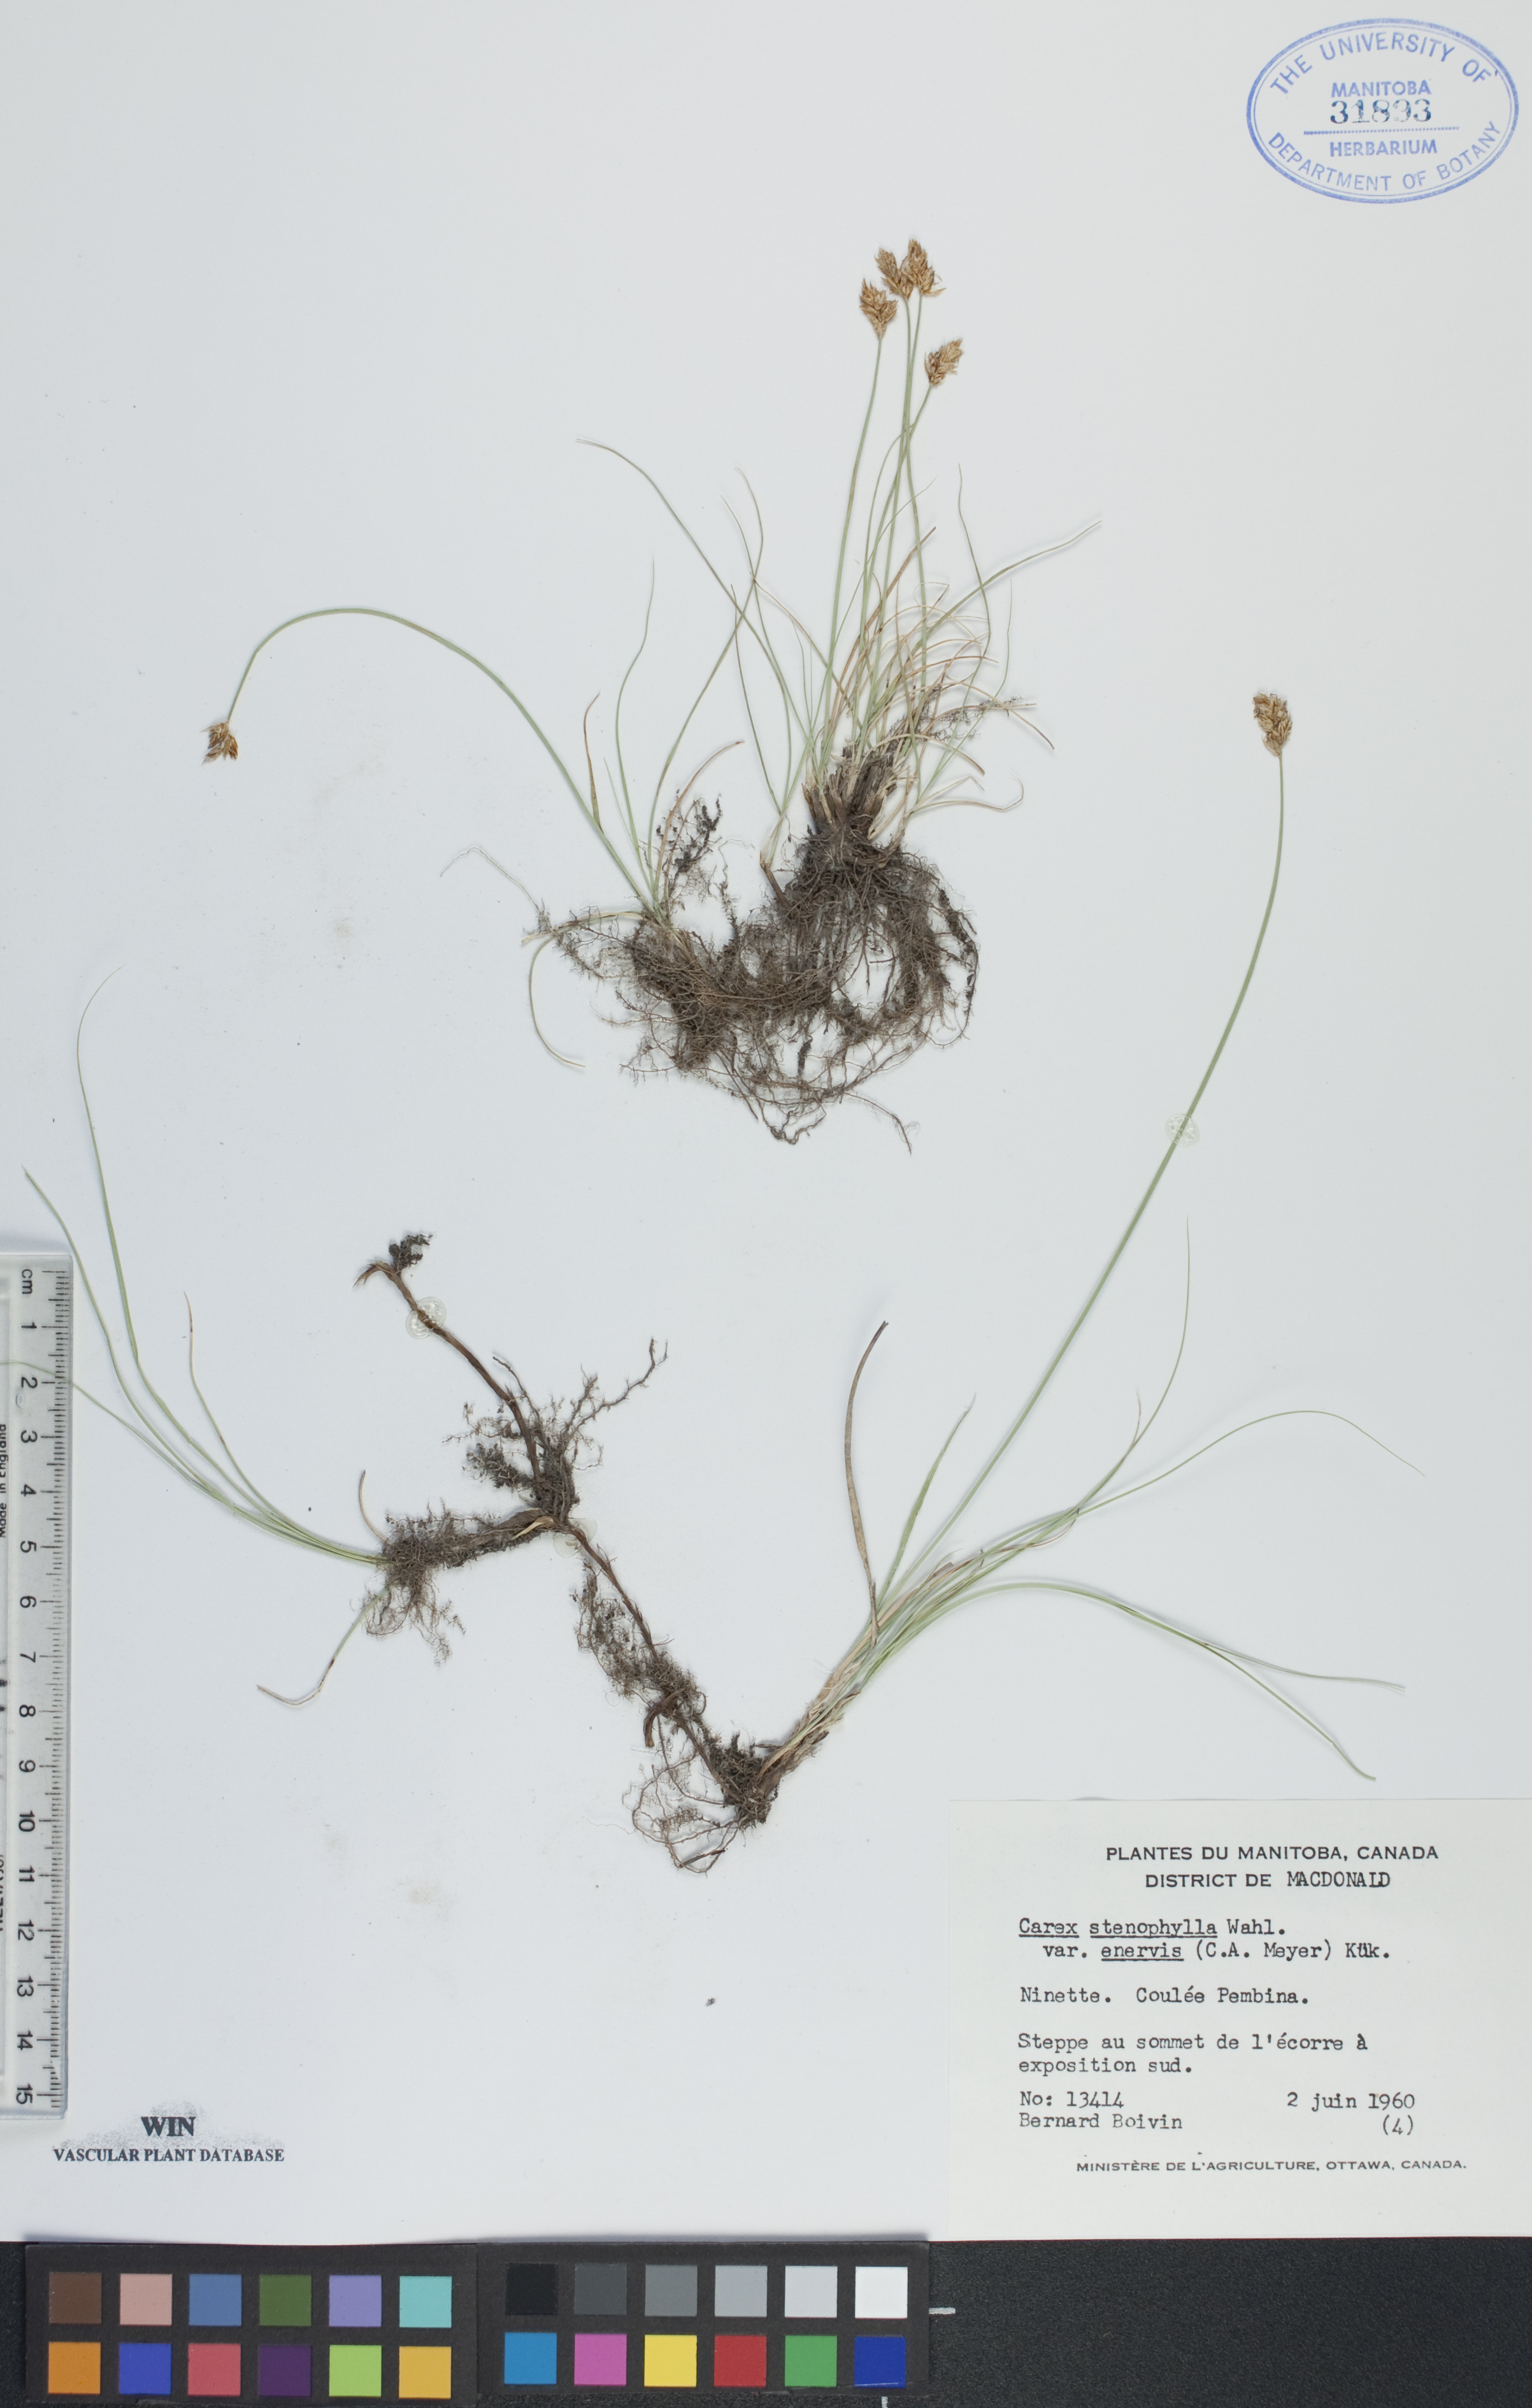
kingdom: Plantae
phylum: Tracheophyta
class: Liliopsida
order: Poales
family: Cyperaceae
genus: Carex
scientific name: Carex enervis
